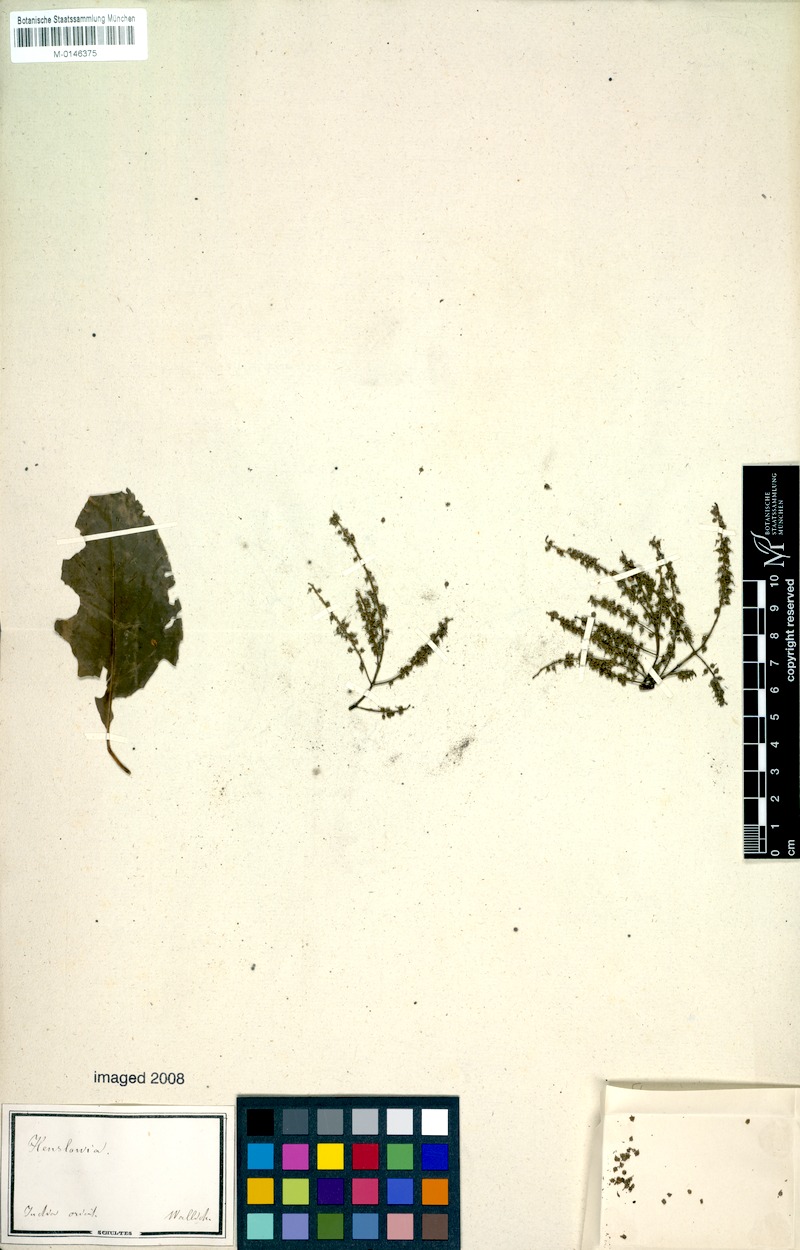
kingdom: Plantae
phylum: Tracheophyta
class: Magnoliopsida
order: Myrtales
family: Crypteroniaceae
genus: Crypteronia
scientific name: Crypteronia paniculata
